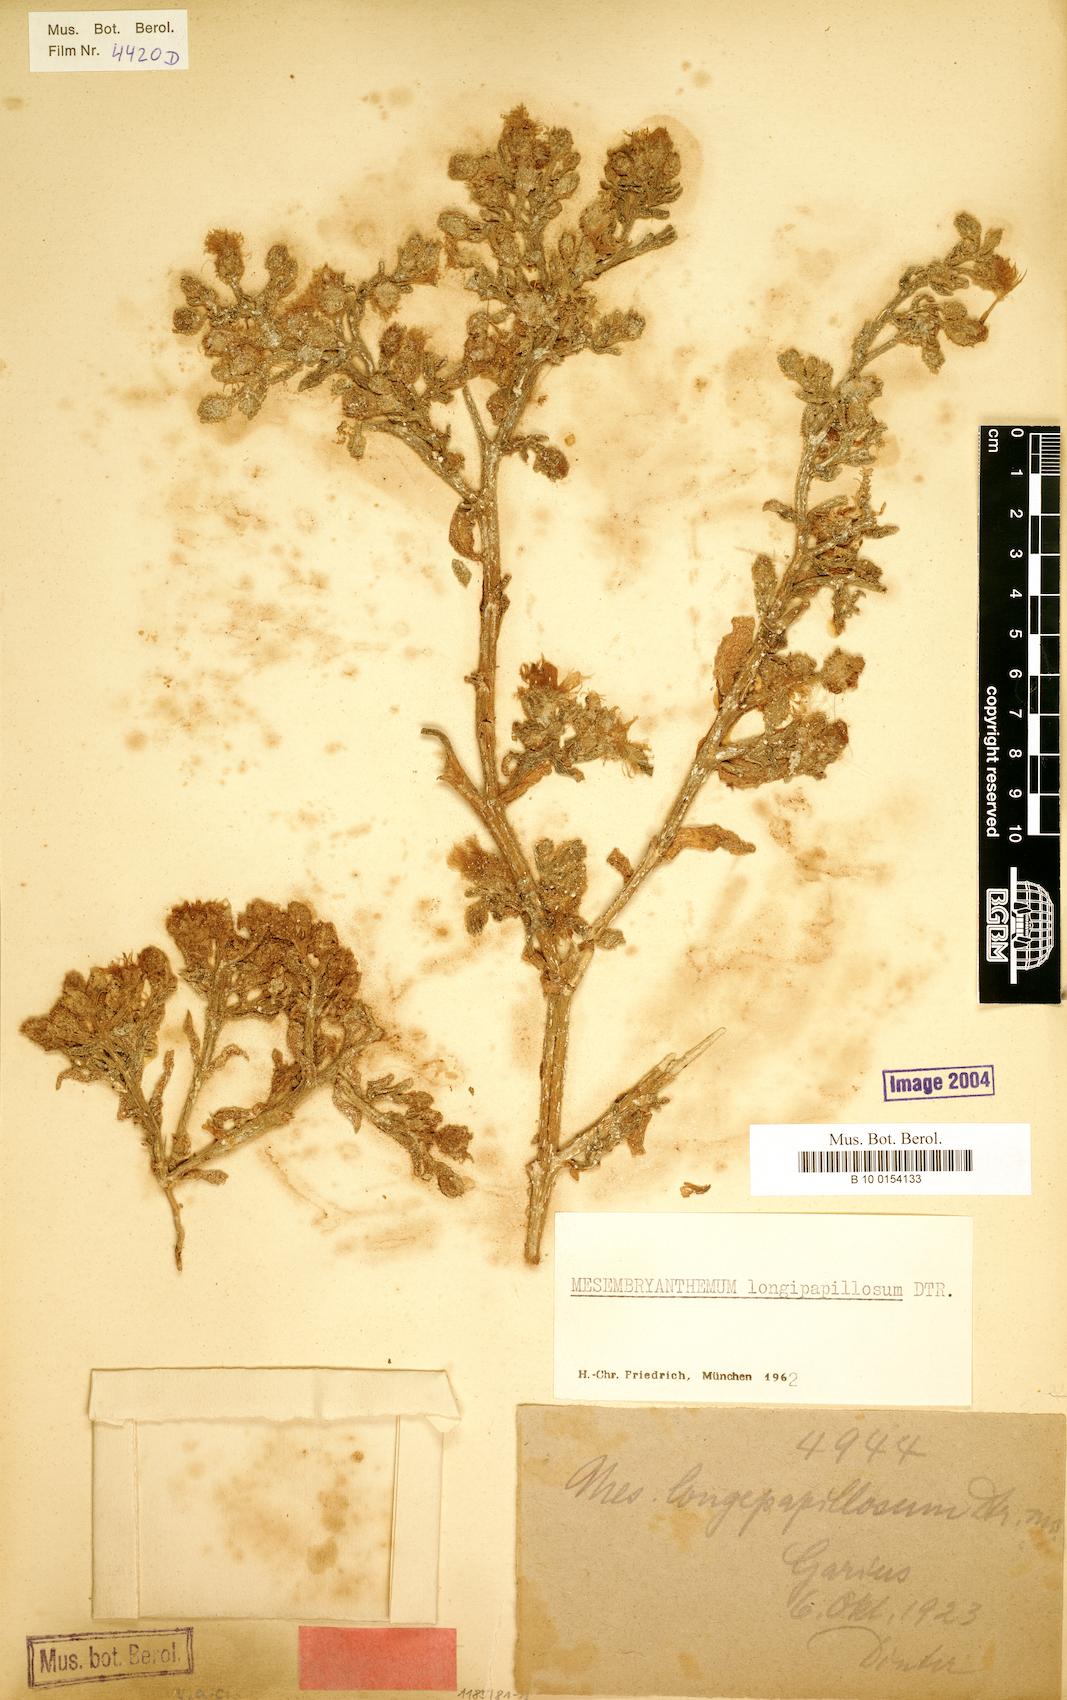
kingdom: Plantae
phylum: Tracheophyta
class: Magnoliopsida
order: Caryophyllales
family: Aizoaceae
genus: Mesembryanthemum
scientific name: Mesembryanthemum inachabense
